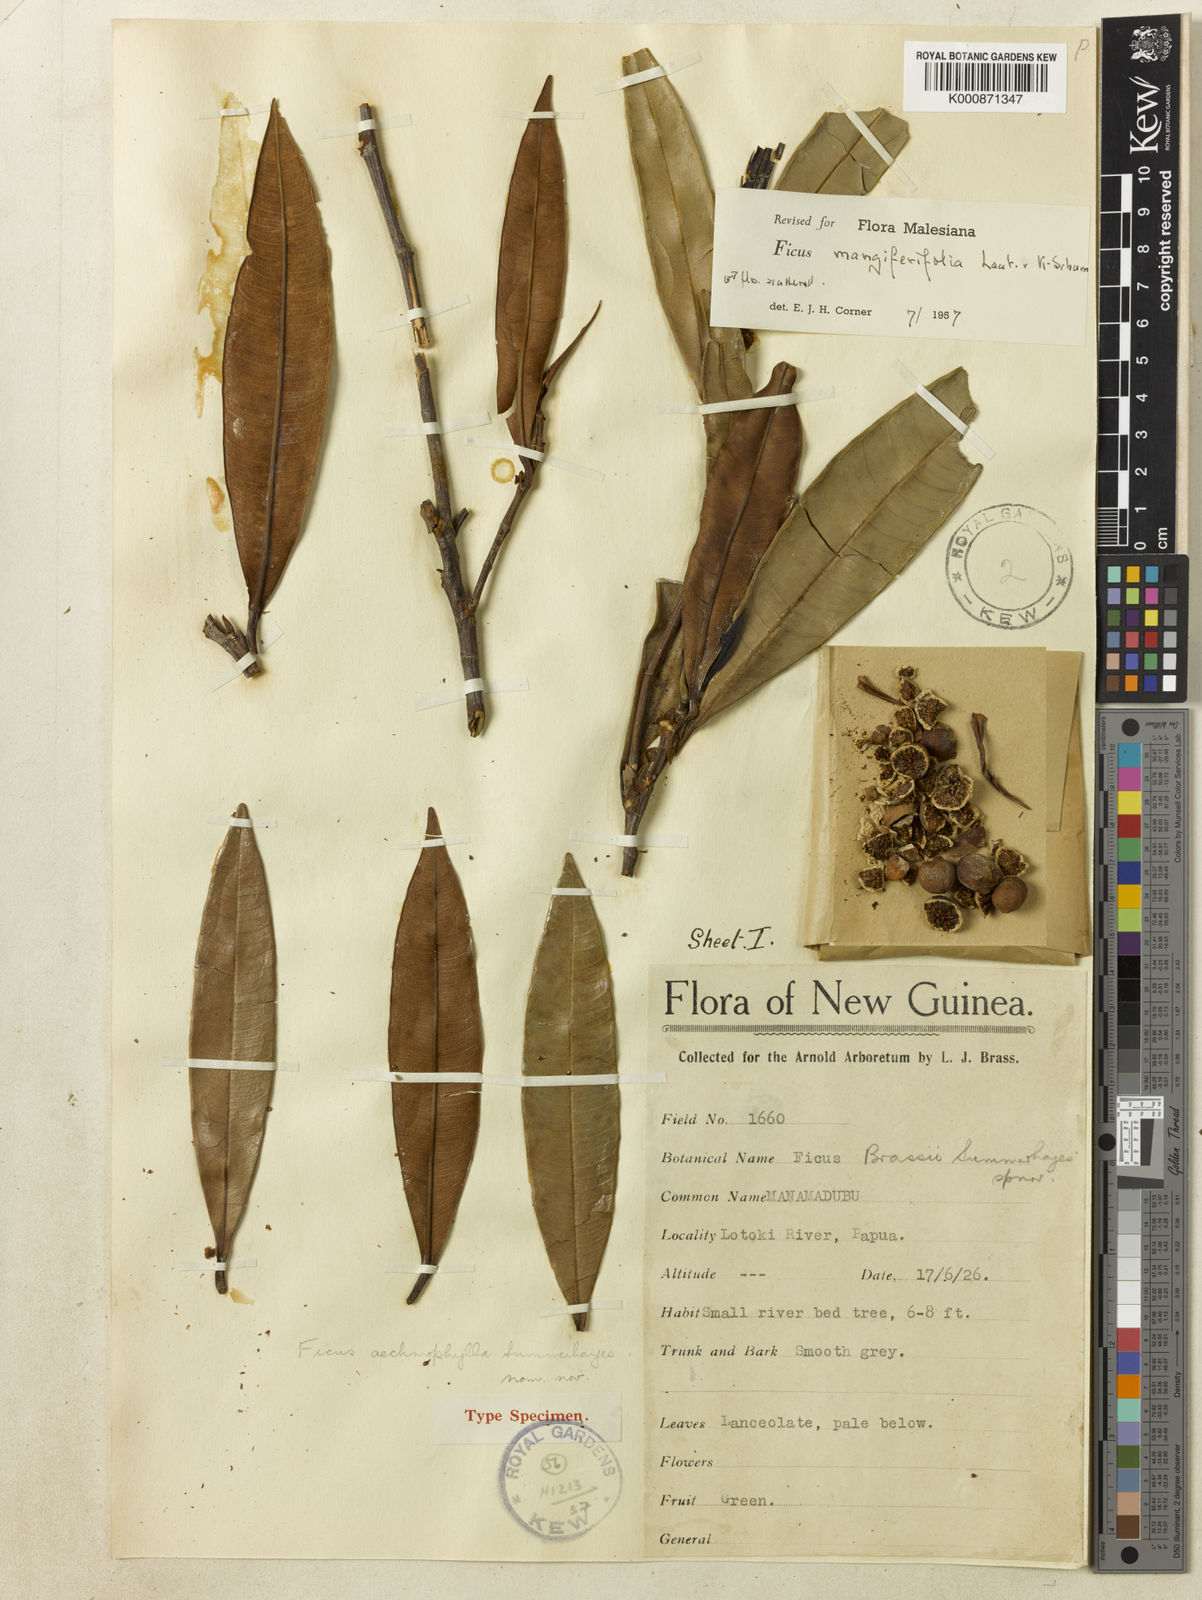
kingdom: Plantae
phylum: Tracheophyta
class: Magnoliopsida
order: Rosales
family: Moraceae
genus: Ficus
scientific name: Ficus subtrinervia
